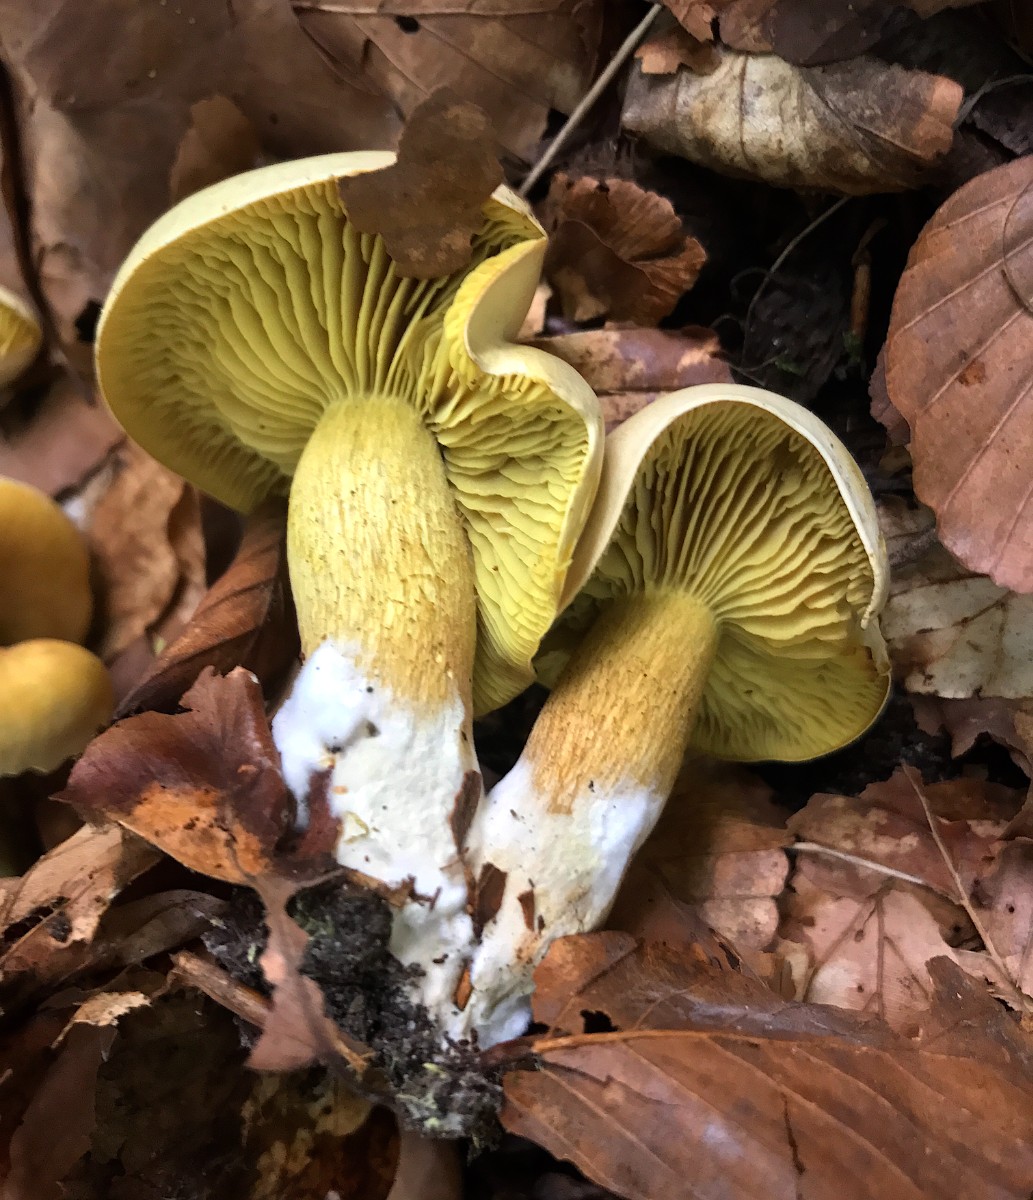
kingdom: Fungi
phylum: Basidiomycota
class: Agaricomycetes
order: Agaricales
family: Tricholomataceae
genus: Tricholoma
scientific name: Tricholoma sulphureum
